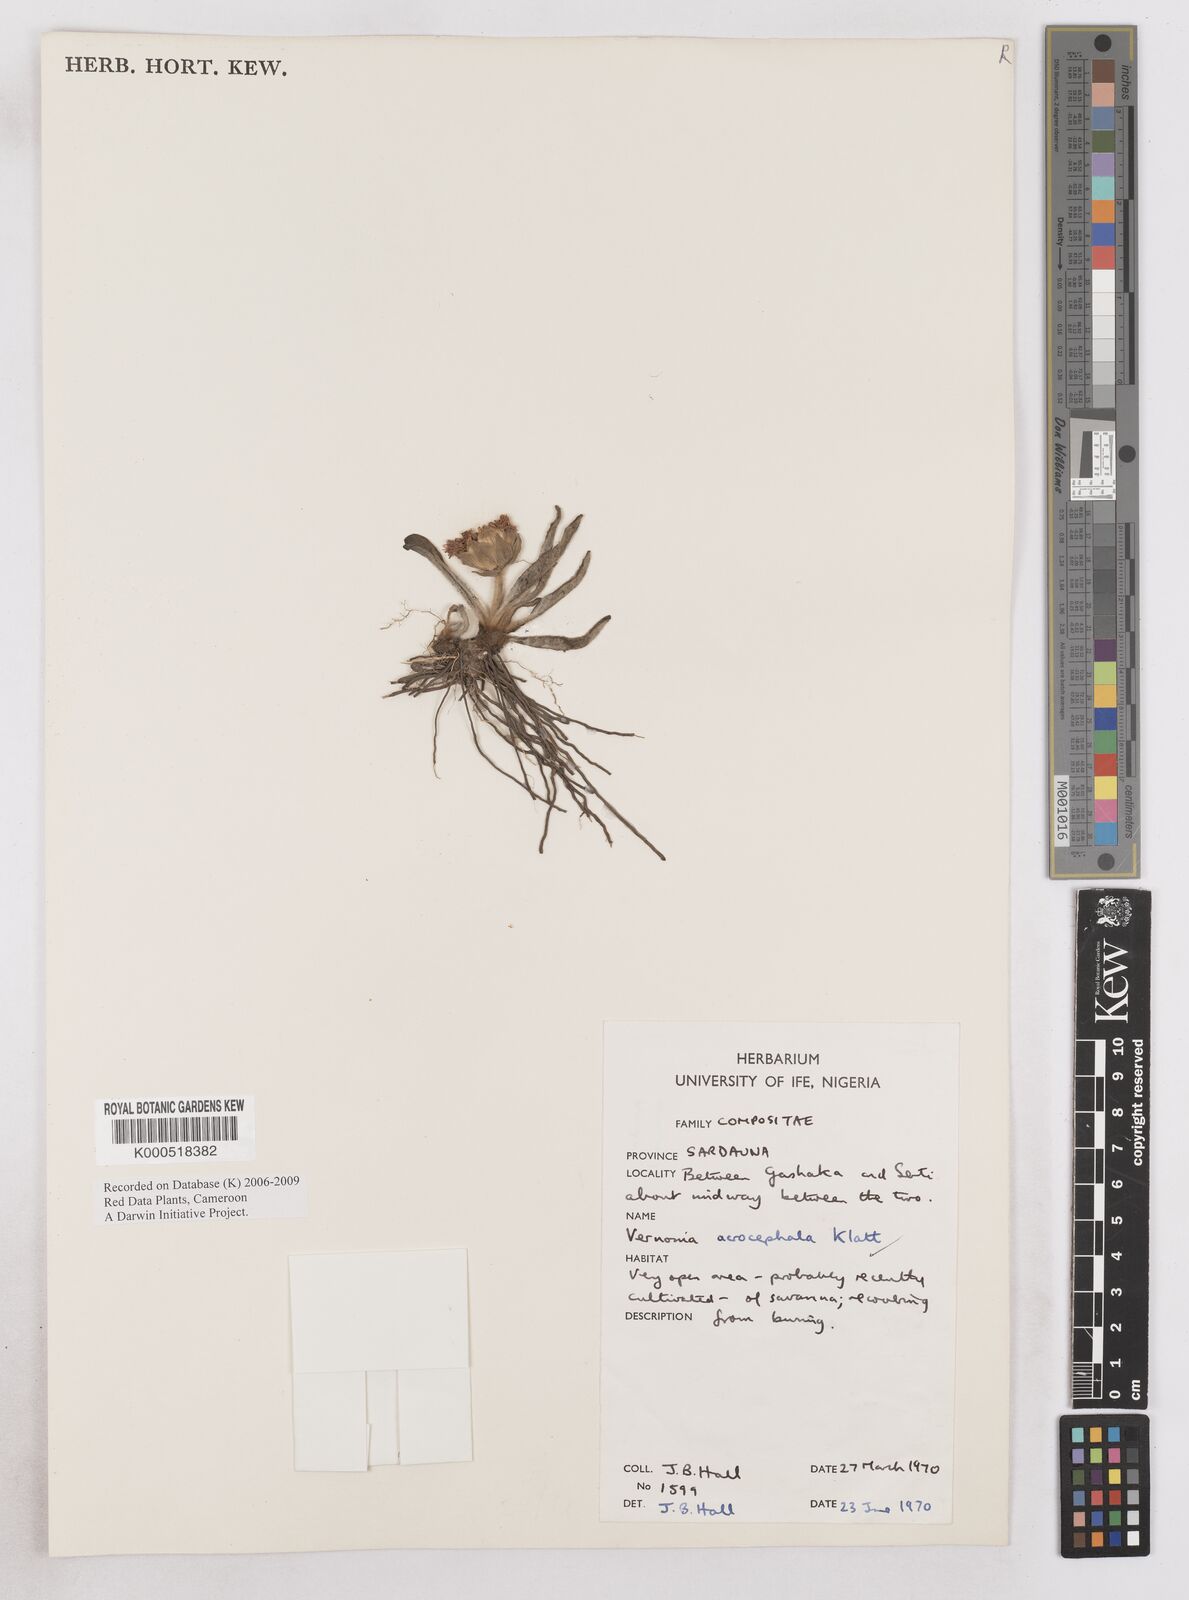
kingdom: Plantae
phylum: Tracheophyta
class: Magnoliopsida
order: Asterales
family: Asteraceae
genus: Vernonella
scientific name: Vernonella acrocephala
